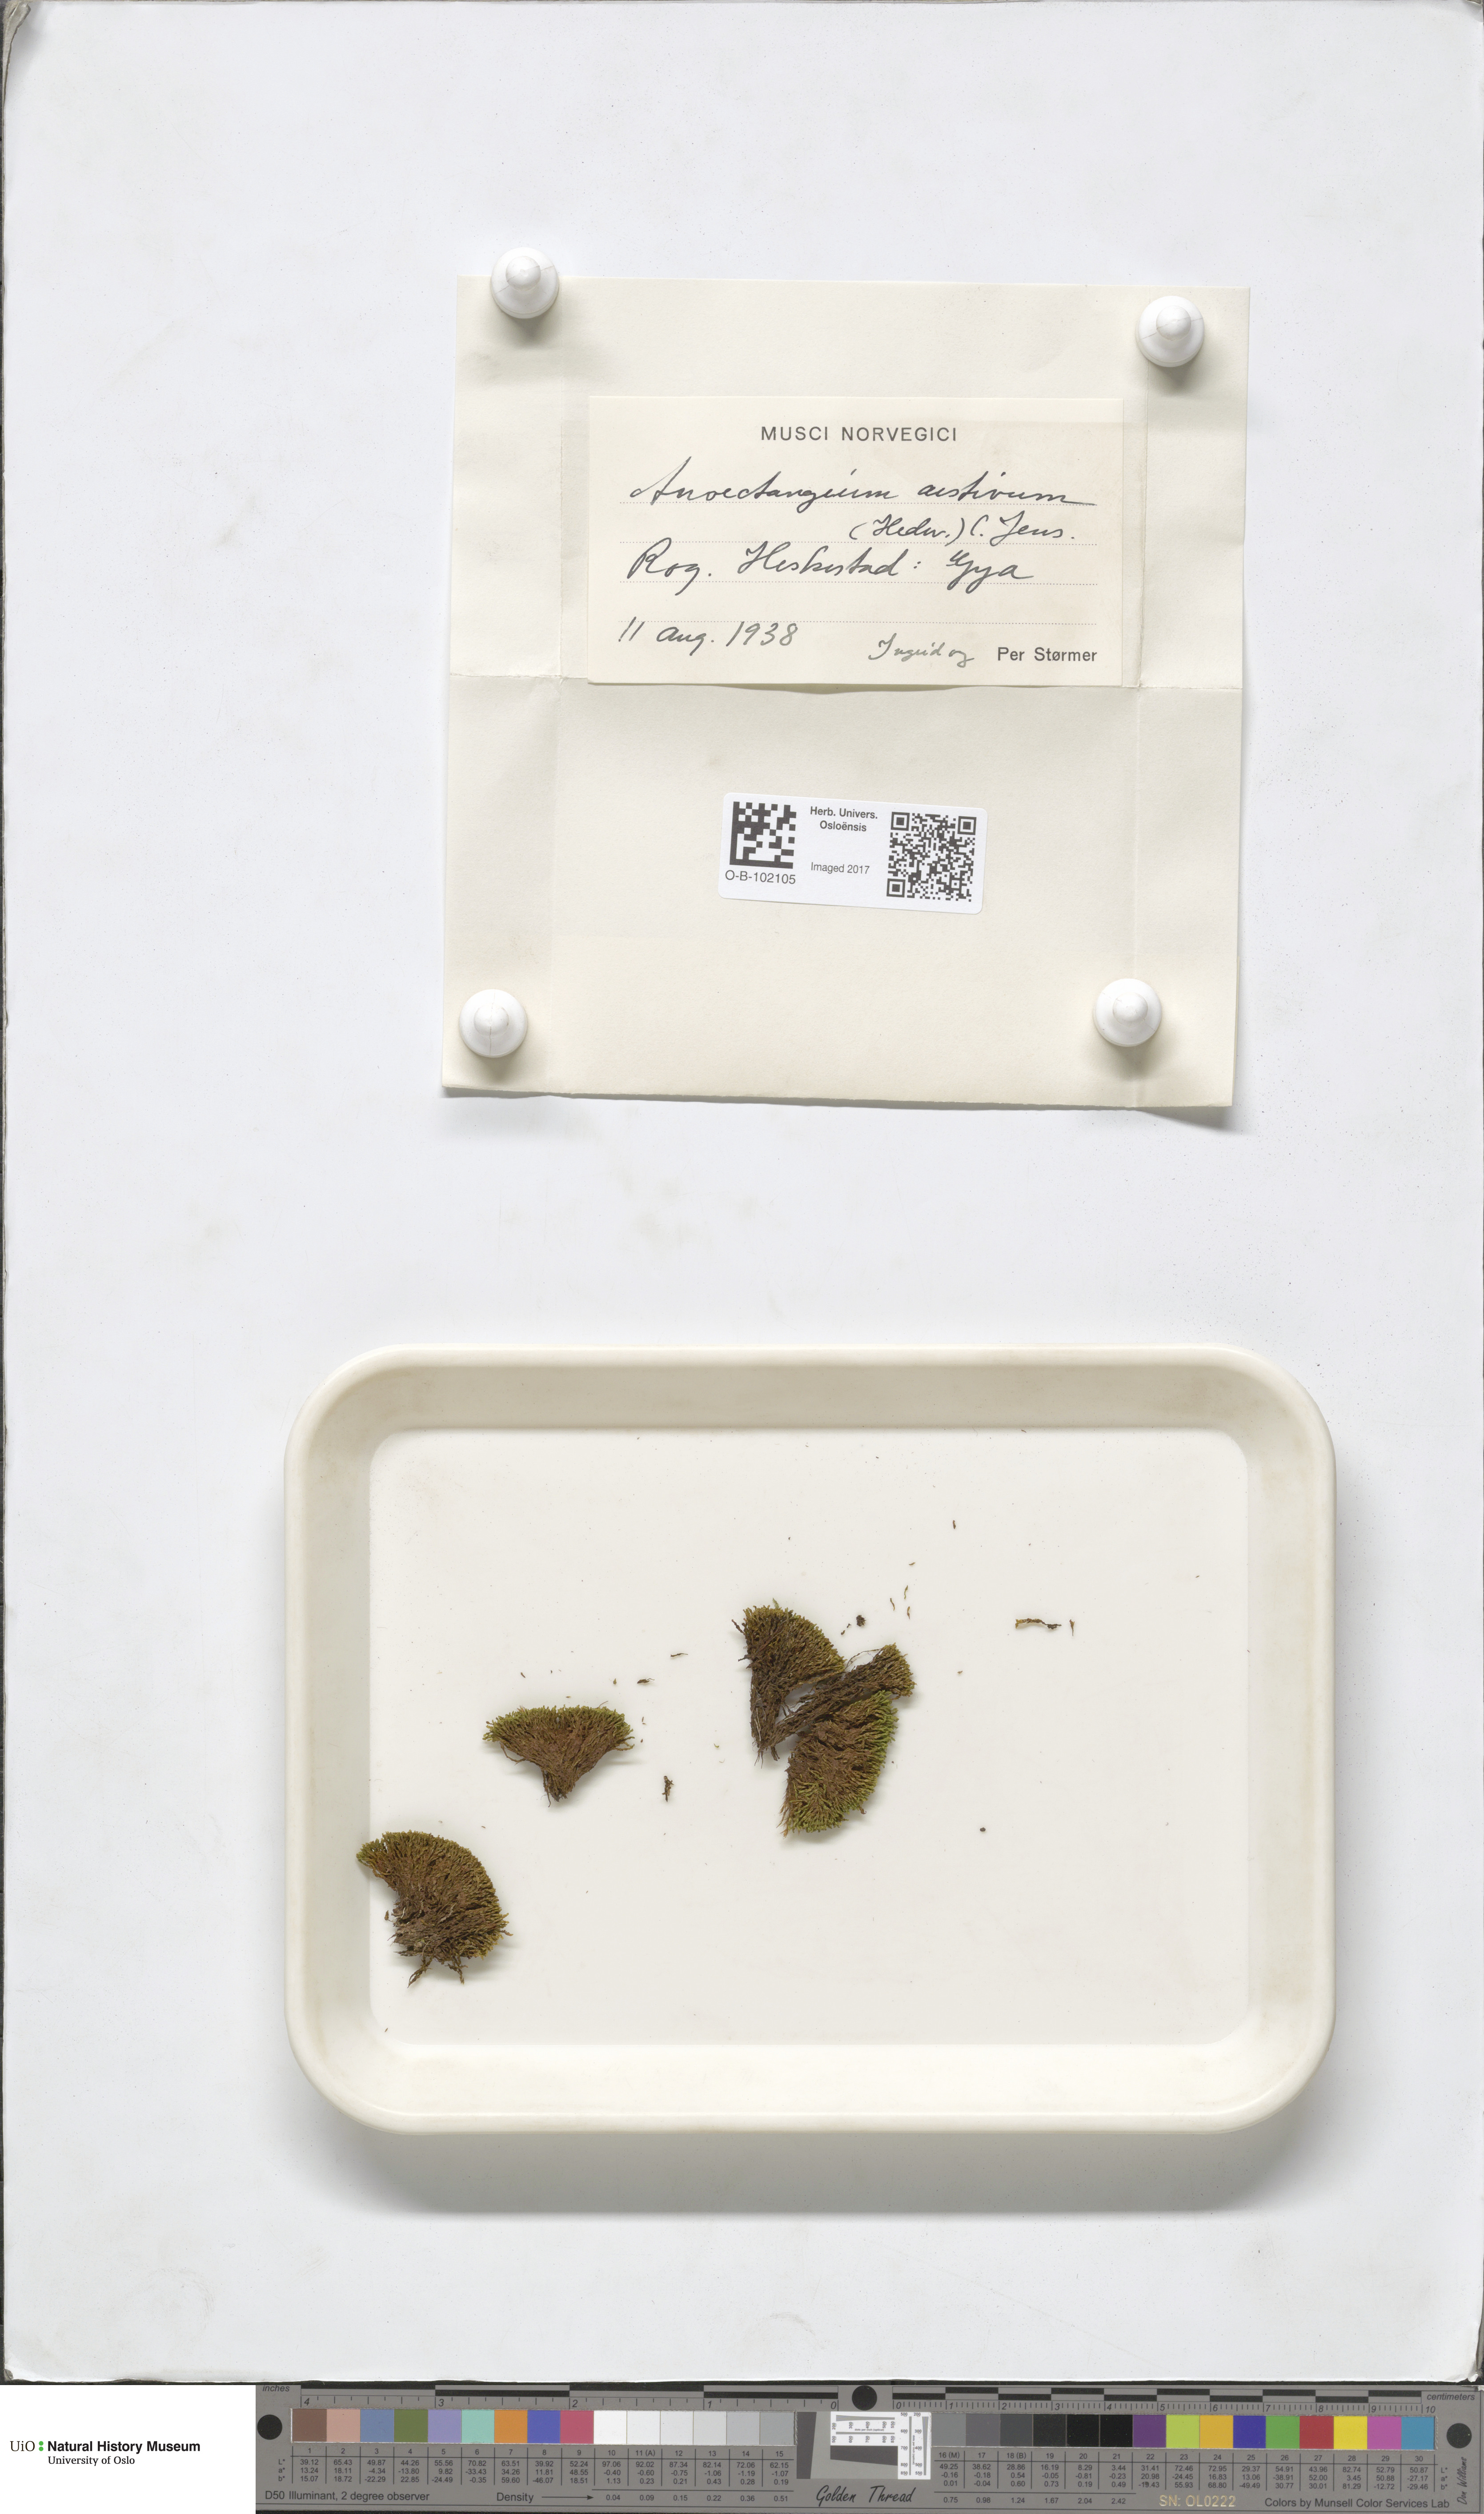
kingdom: Plantae
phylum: Bryophyta
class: Bryopsida
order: Pottiales
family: Pottiaceae
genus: Anoectangium
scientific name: Anoectangium aestivum
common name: Summer-moss
